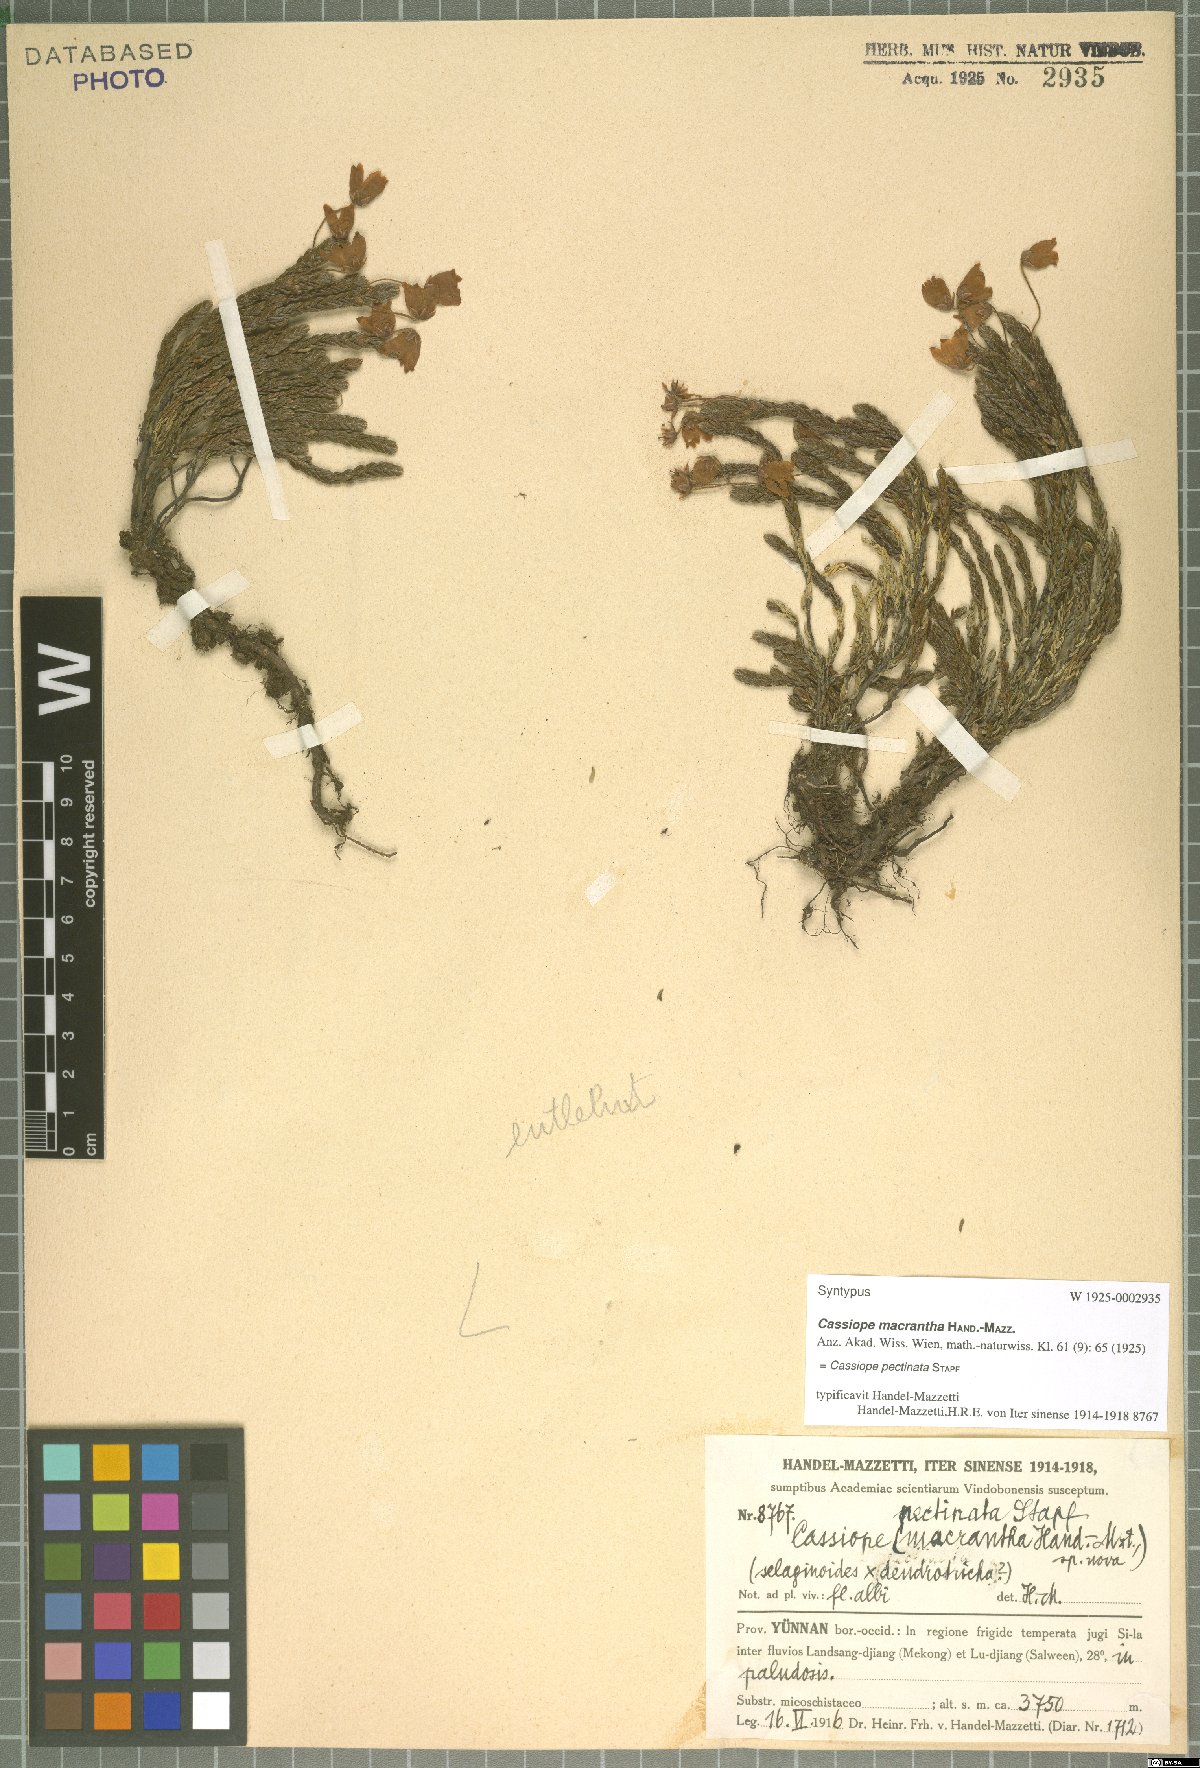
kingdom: Plantae
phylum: Tracheophyta
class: Magnoliopsida
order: Ericales
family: Ericaceae
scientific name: Ericaceae
